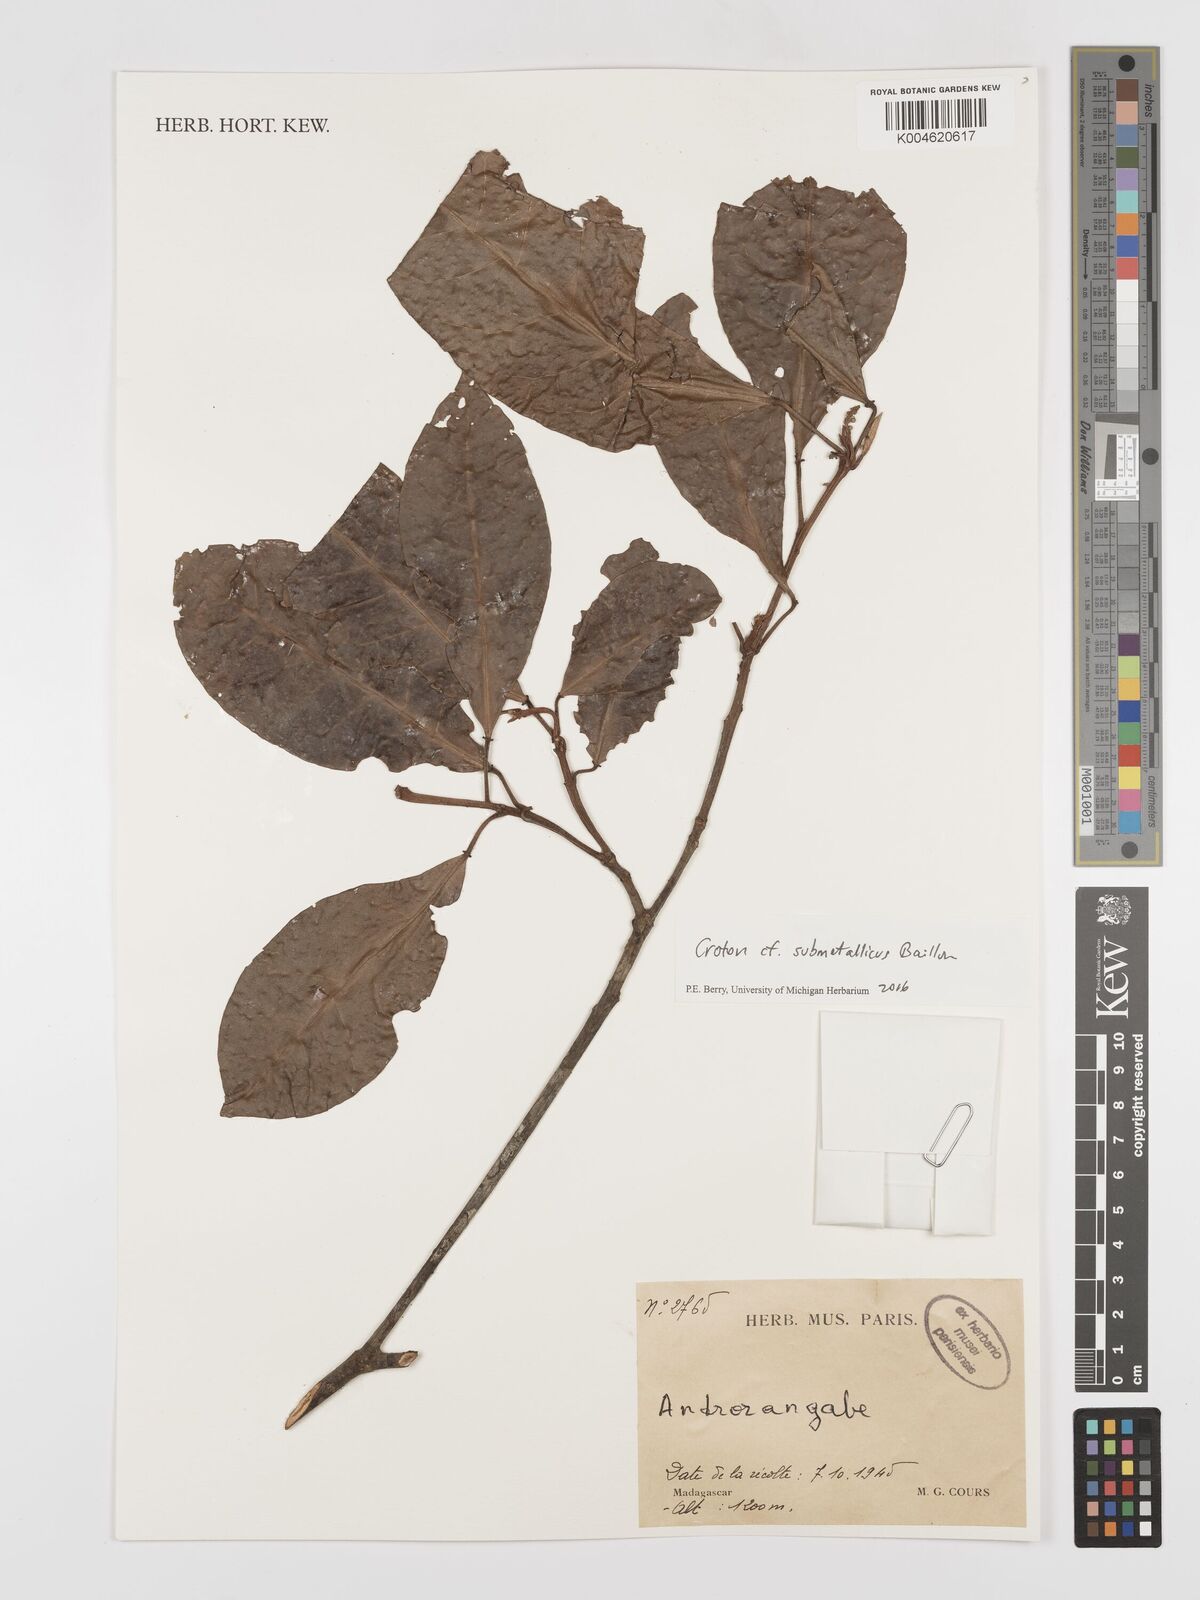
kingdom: Plantae
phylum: Tracheophyta
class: Magnoliopsida
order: Malpighiales
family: Euphorbiaceae
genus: Croton
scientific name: Croton submetallicus
